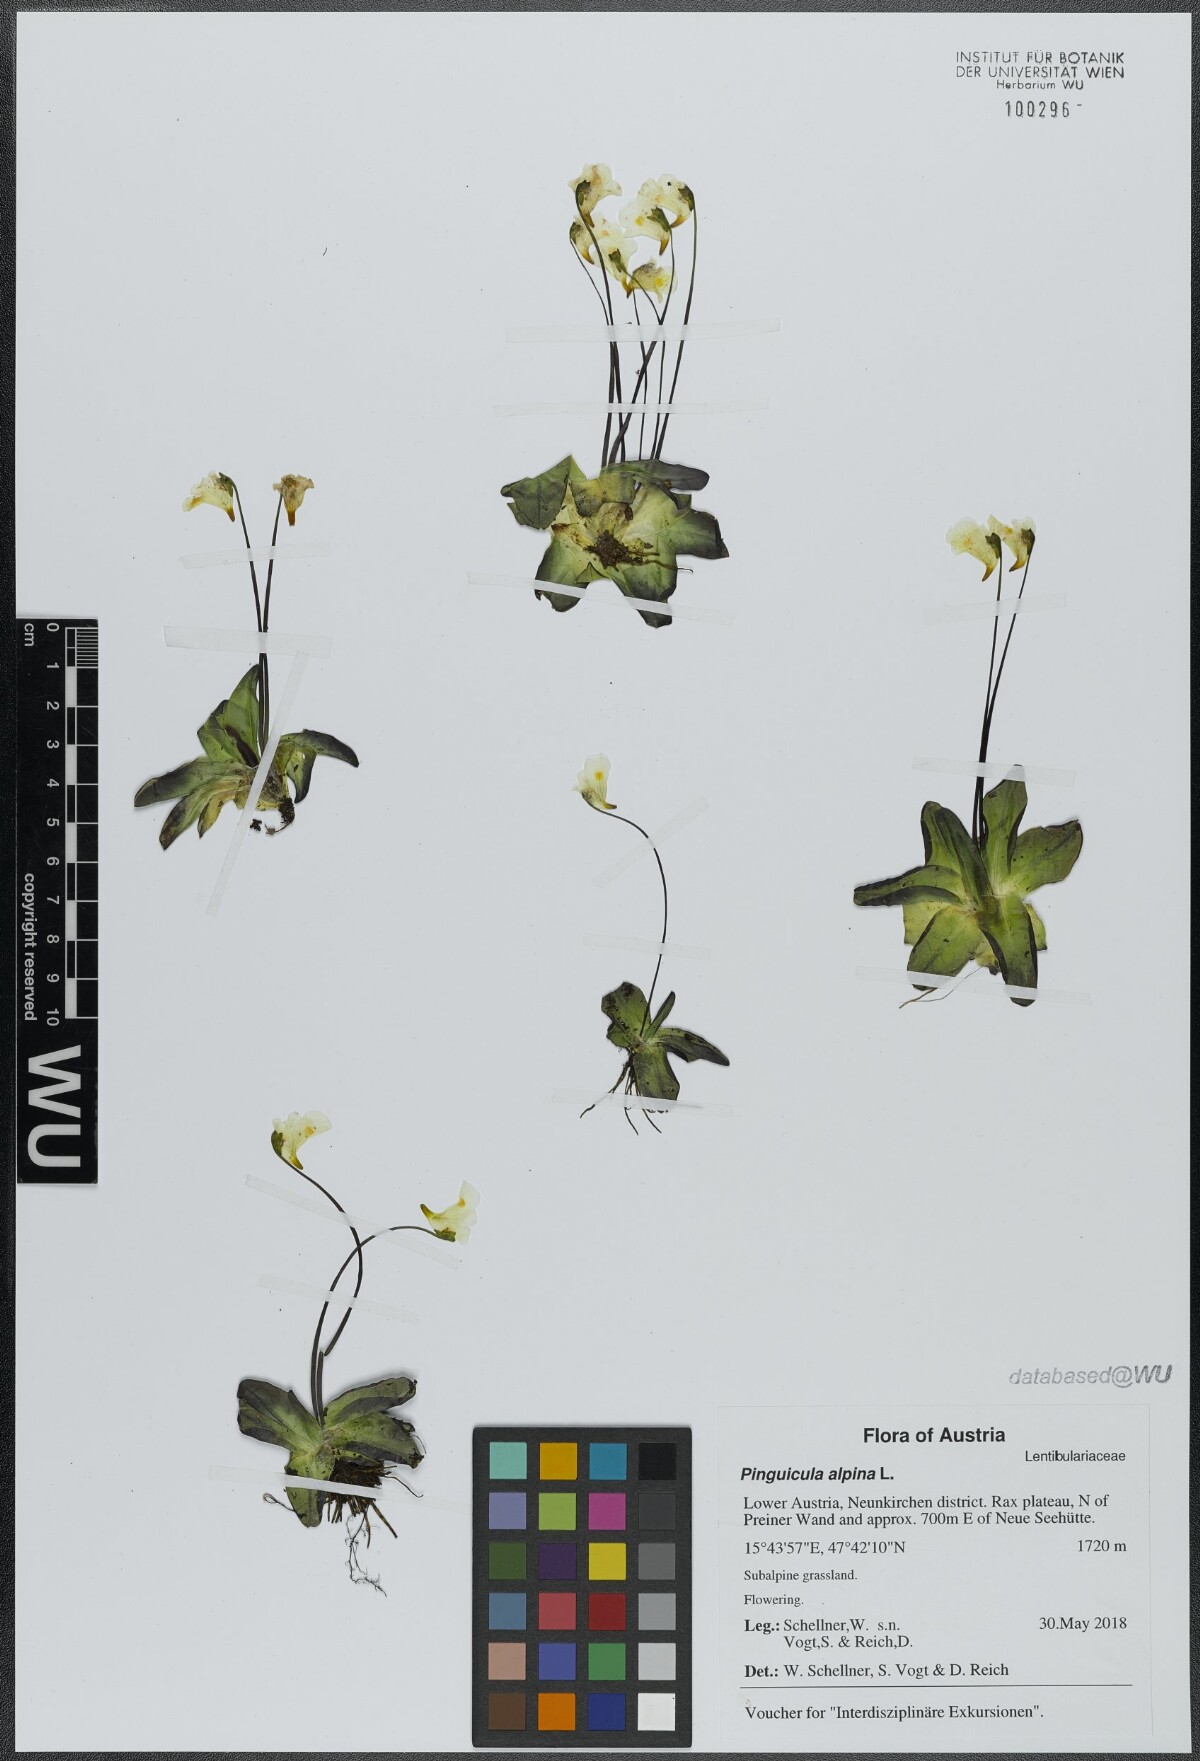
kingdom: Plantae
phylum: Tracheophyta
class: Magnoliopsida
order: Lamiales
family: Lentibulariaceae
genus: Pinguicula
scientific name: Pinguicula alpina
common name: Alpine butterwort
